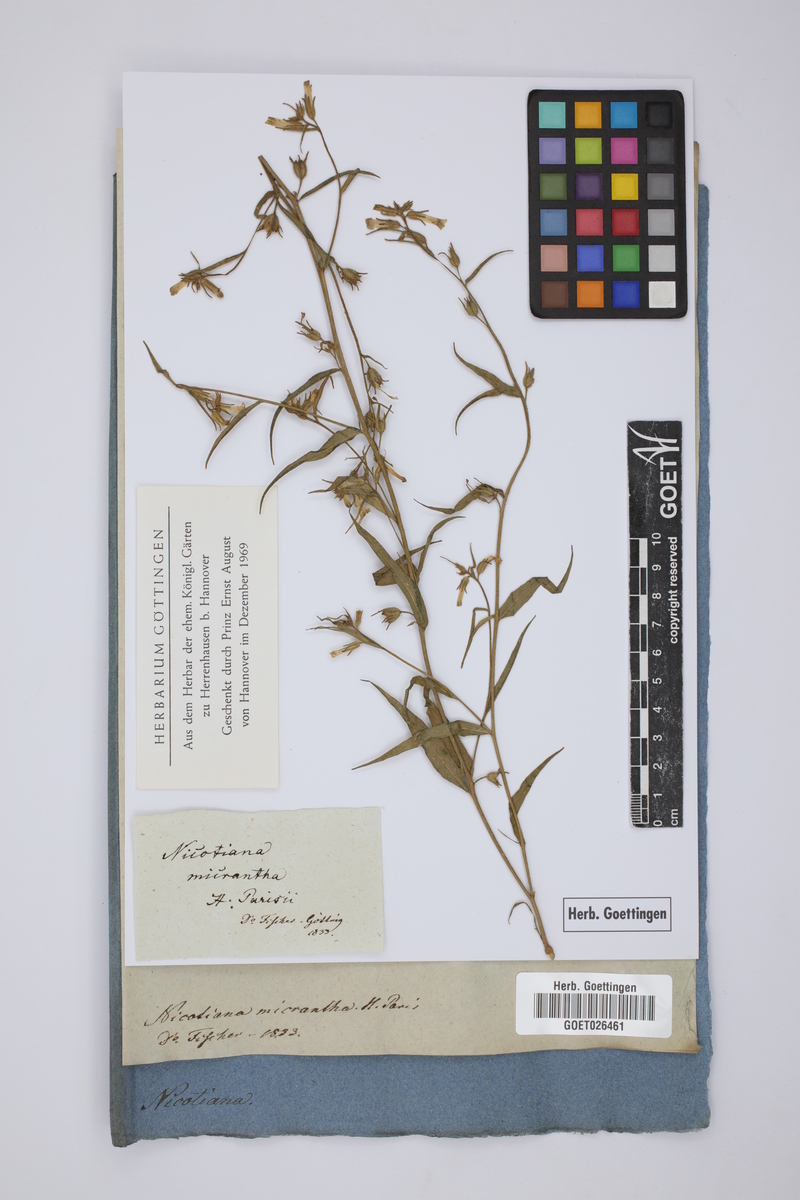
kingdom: Plantae
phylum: Tracheophyta
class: Magnoliopsida
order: Solanales
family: Solanaceae
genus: Salpiglossis
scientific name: Salpiglossis anomala
